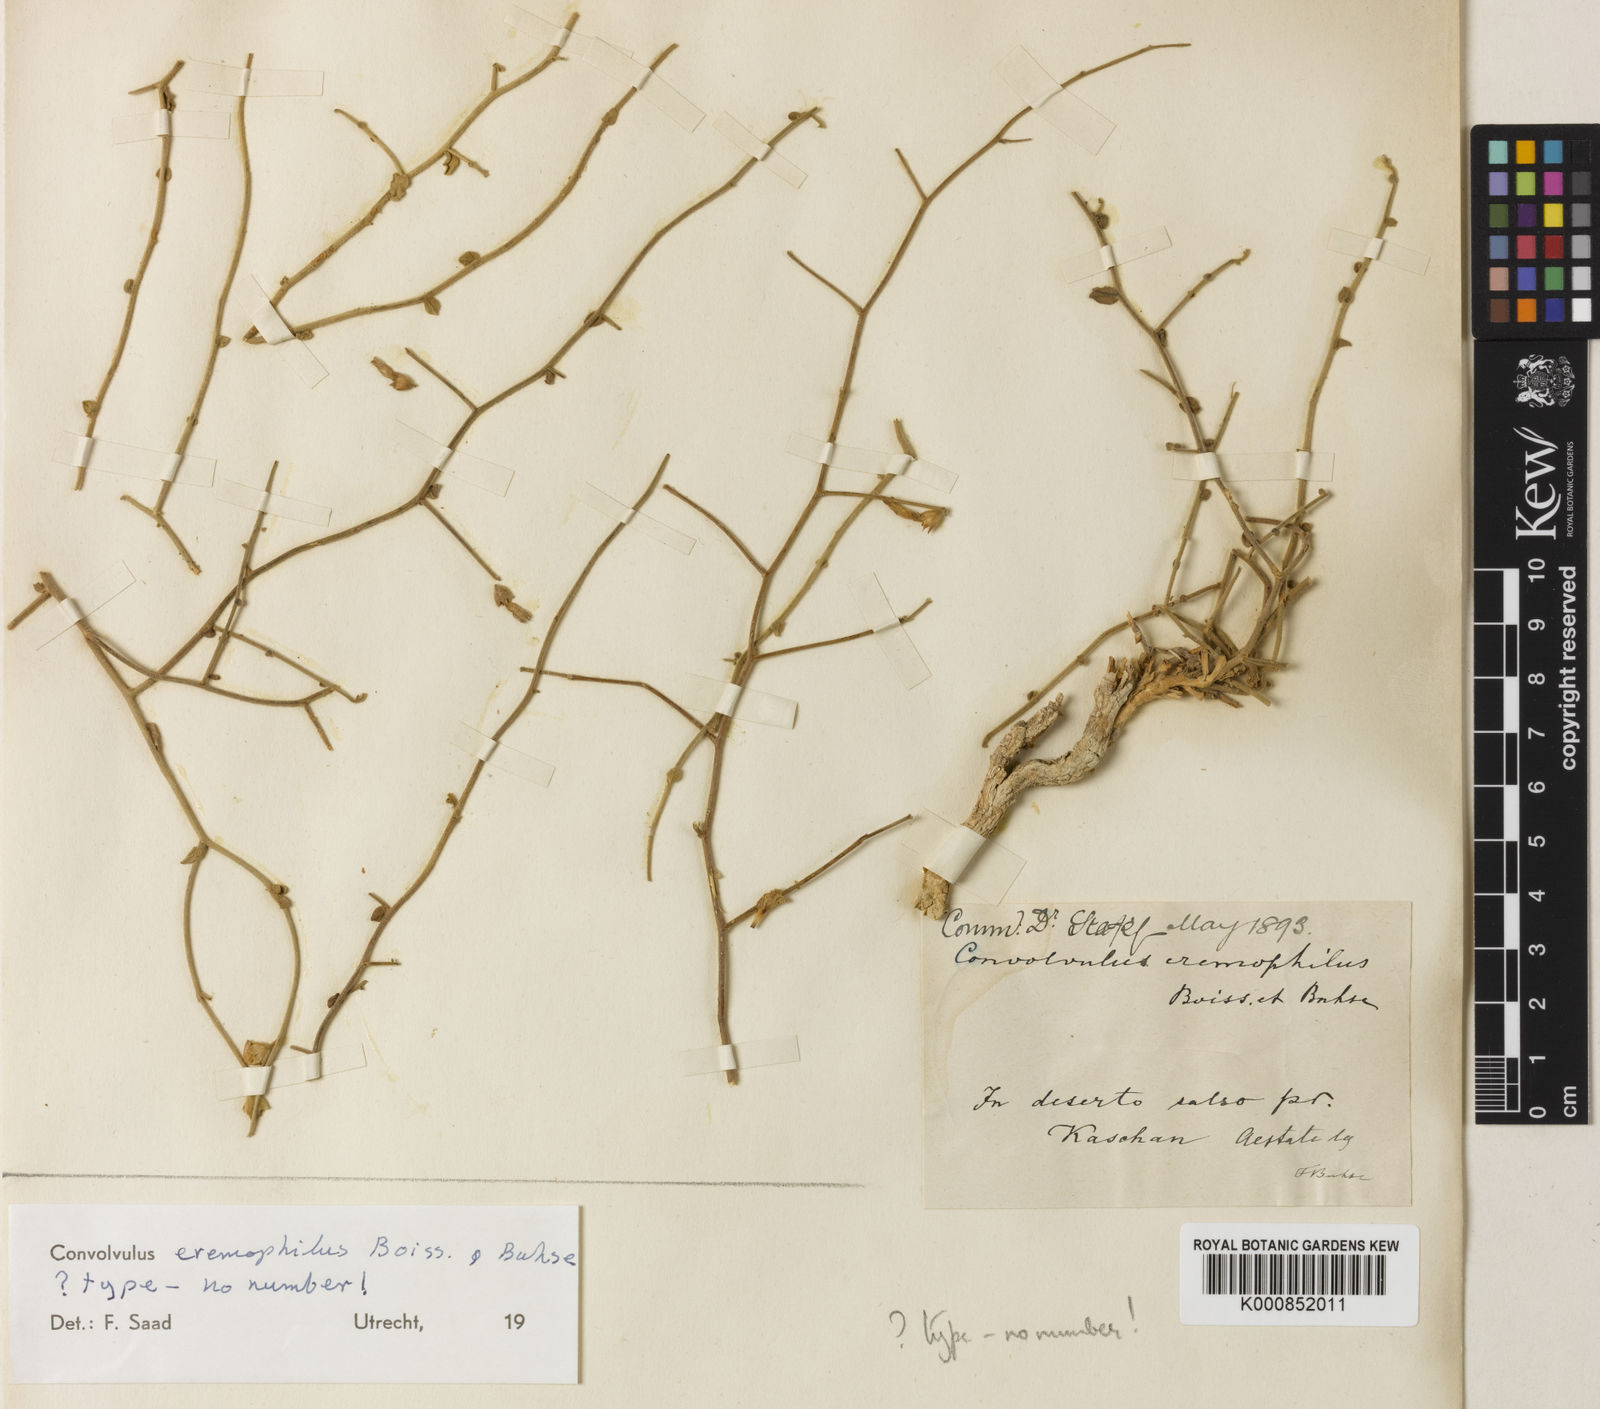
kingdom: Plantae
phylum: Tracheophyta
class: Magnoliopsida
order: Solanales
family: Convolvulaceae
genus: Convolvulus
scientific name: Convolvulus eremophilus
